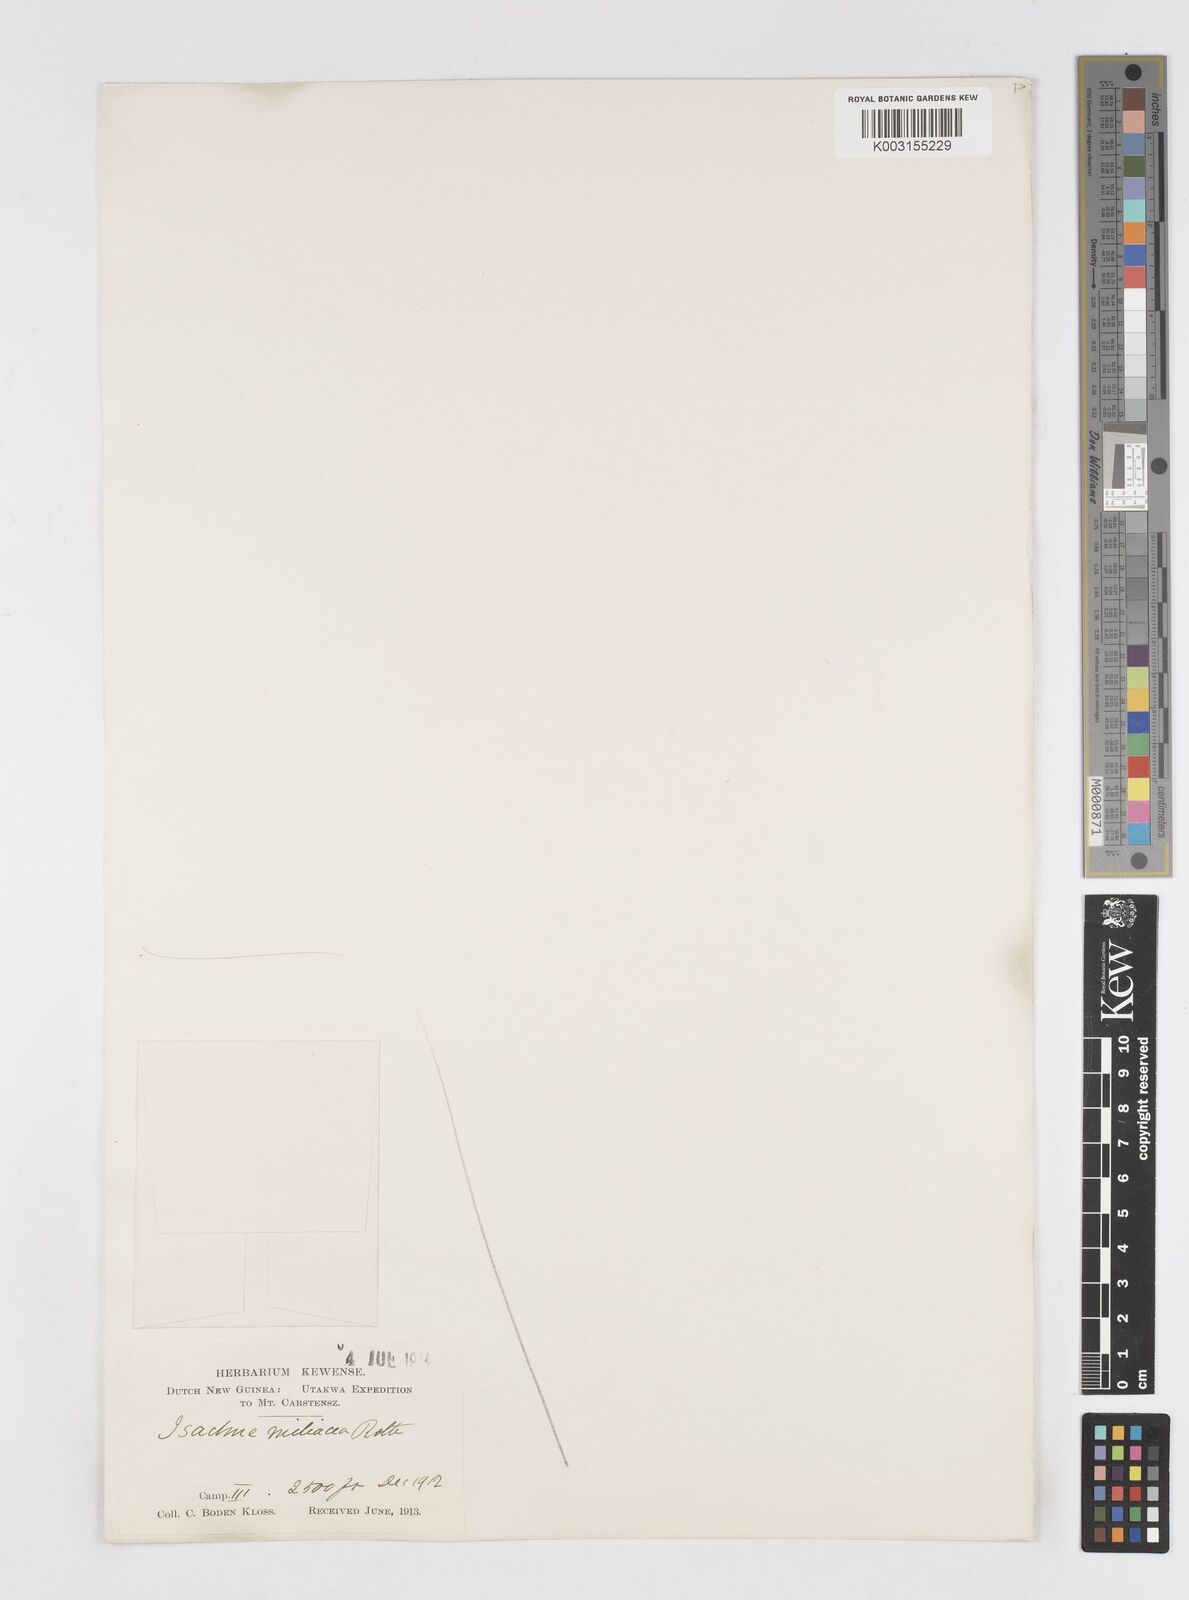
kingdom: Plantae
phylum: Tracheophyta
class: Liliopsida
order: Poales
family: Poaceae
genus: Isachne
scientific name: Isachne globosa
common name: Swamp millet
